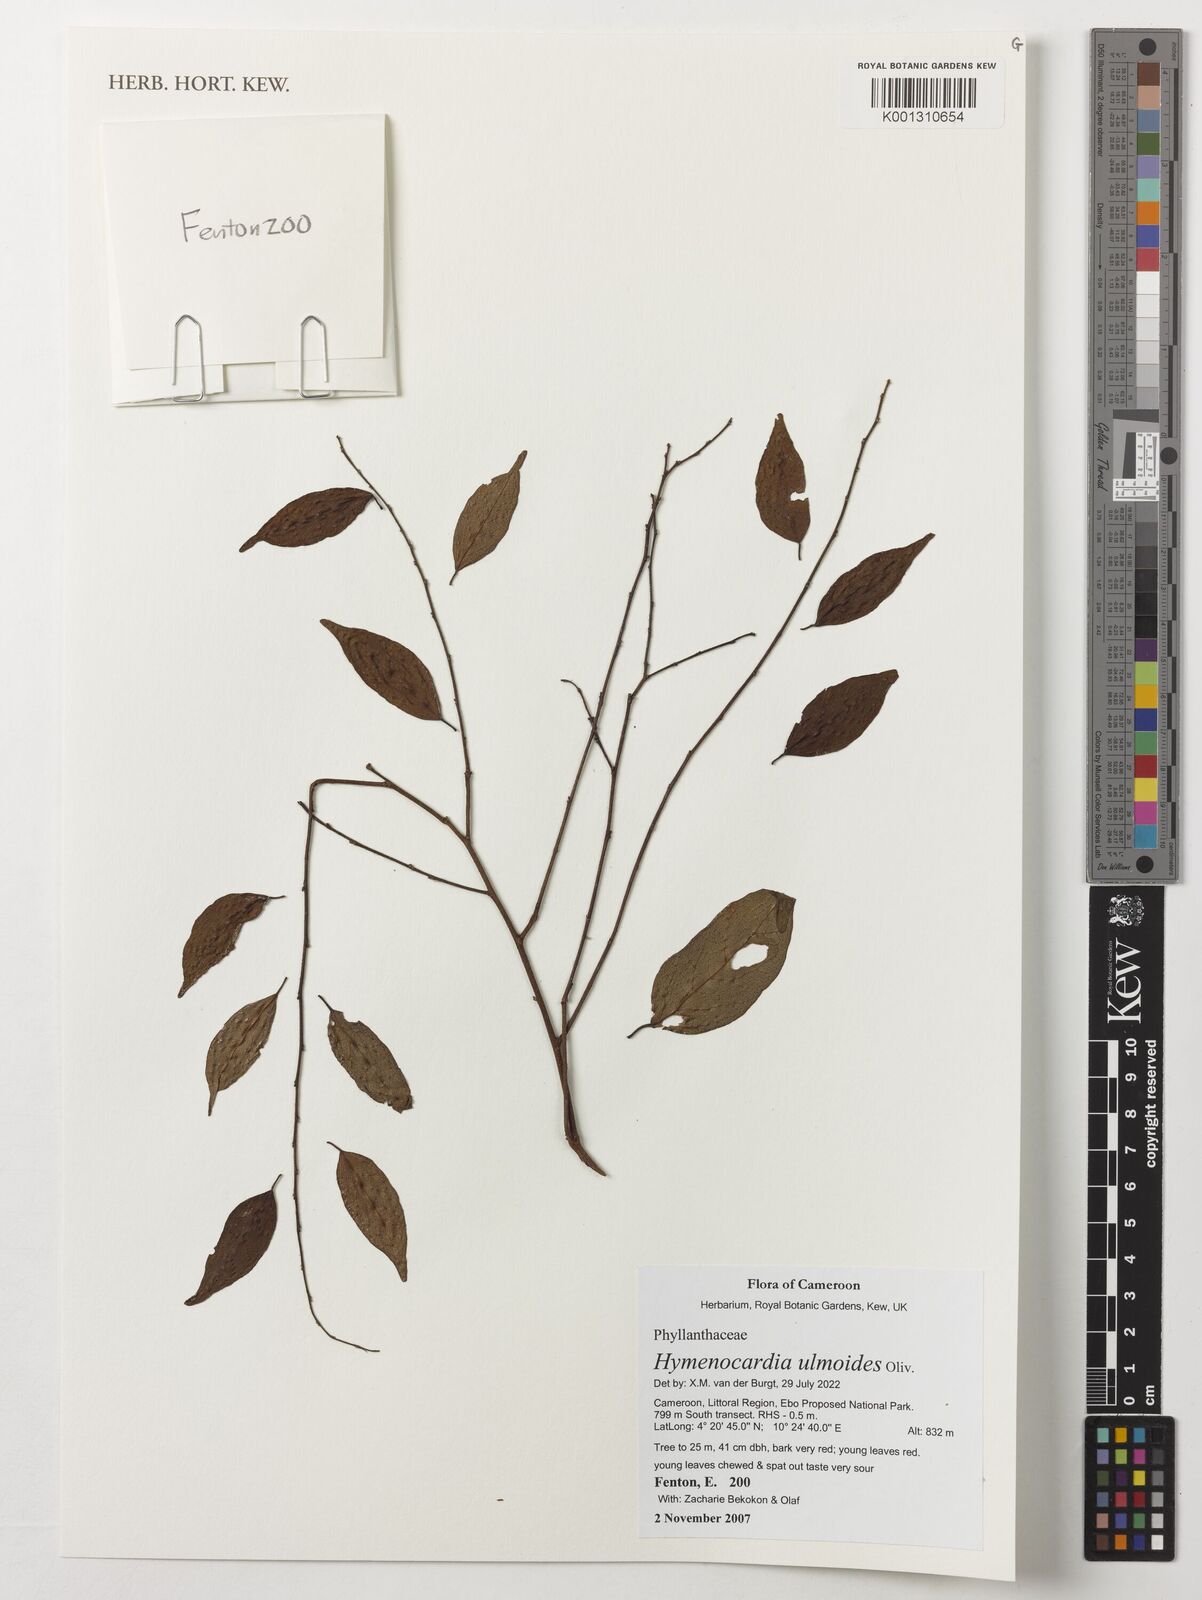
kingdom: Plantae
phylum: Tracheophyta
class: Magnoliopsida
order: Malpighiales
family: Phyllanthaceae
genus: Hymenocardia
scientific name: Hymenocardia ulmoides
